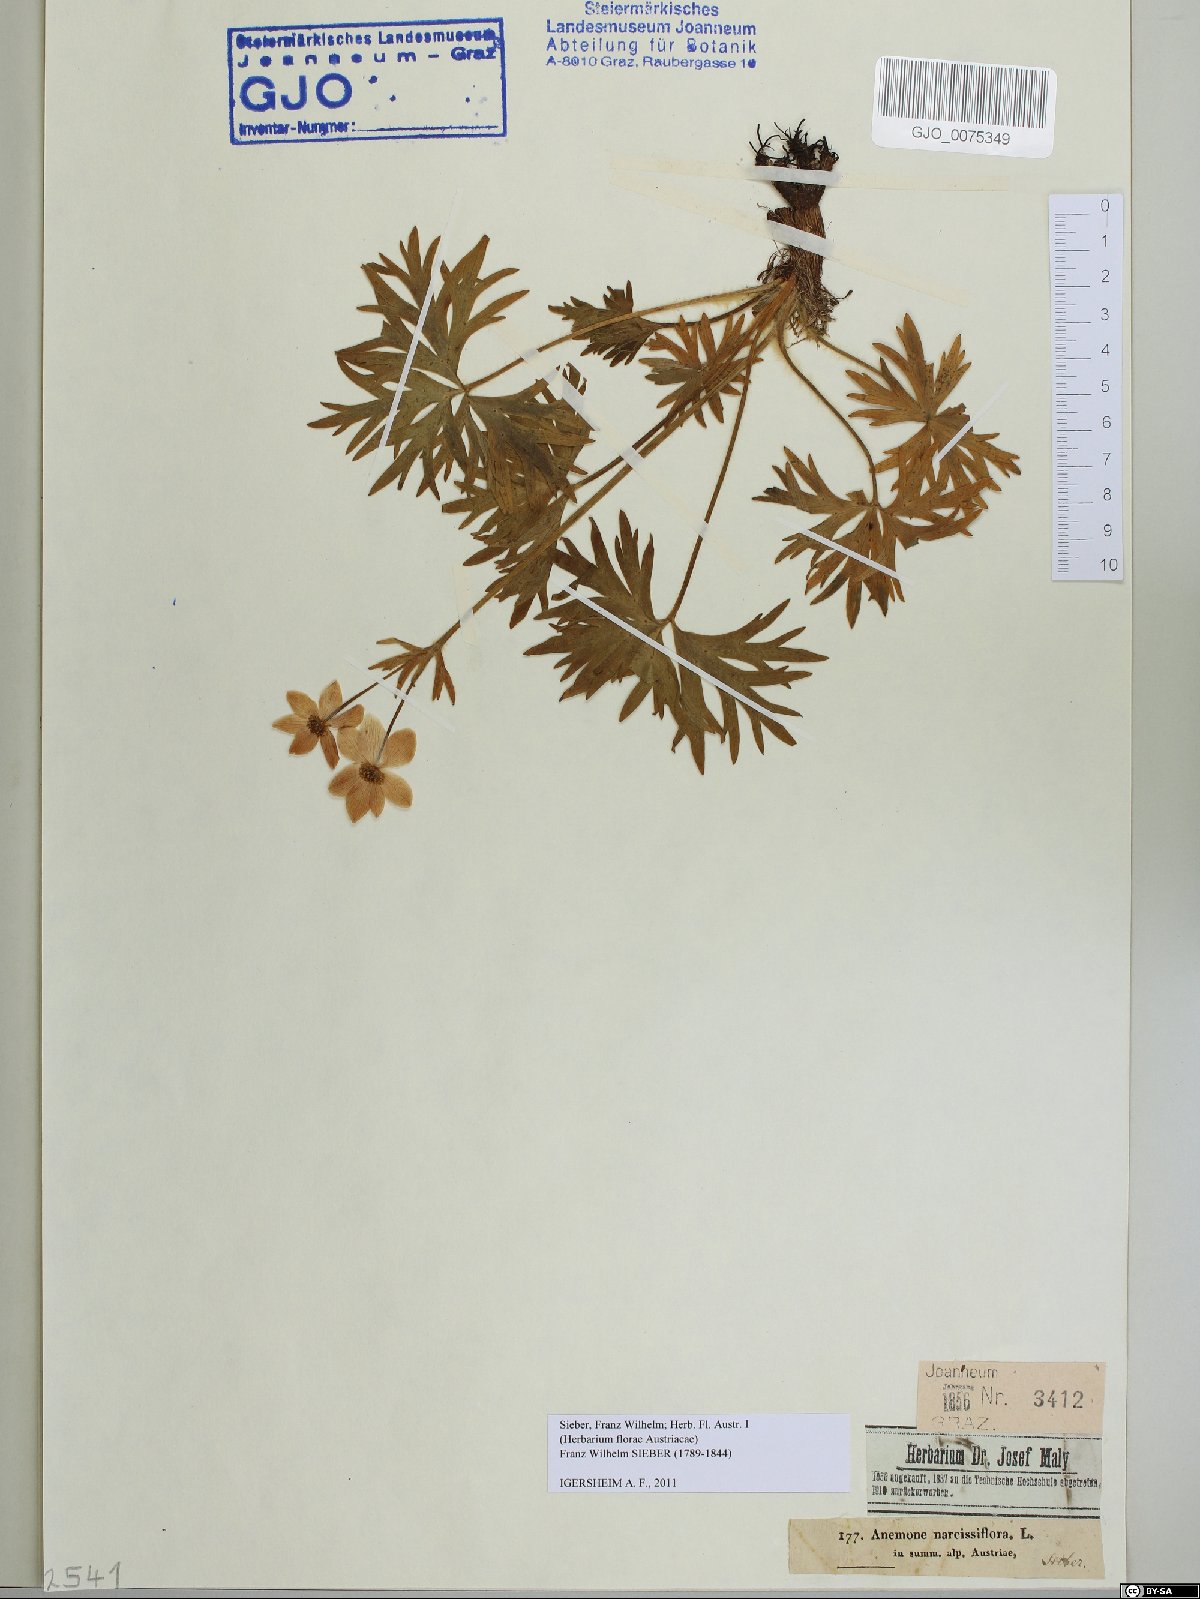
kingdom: Plantae
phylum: Tracheophyta
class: Magnoliopsida
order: Ranunculales
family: Ranunculaceae
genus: Anemonastrum
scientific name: Anemonastrum narcissiflorum
